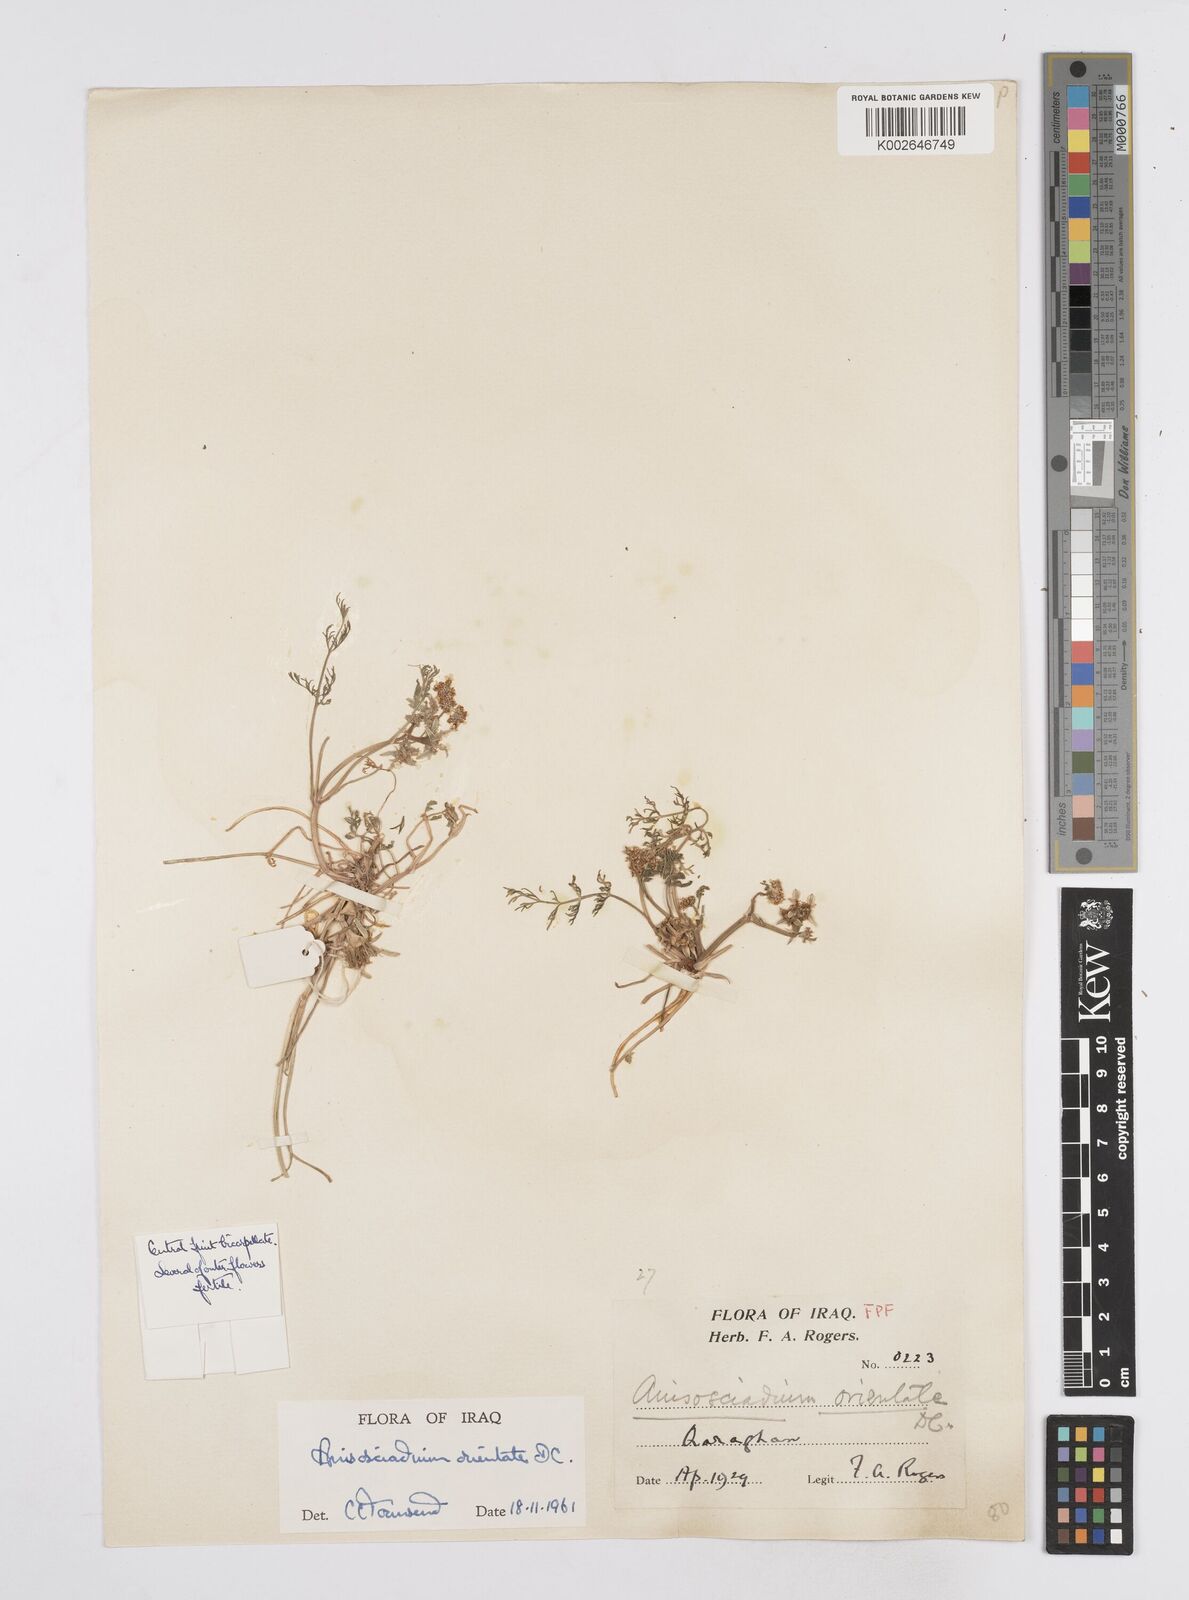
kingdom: Plantae
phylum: Tracheophyta
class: Magnoliopsida
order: Apiales
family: Apiaceae
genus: Anisosciadium
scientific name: Anisosciadium orientale
